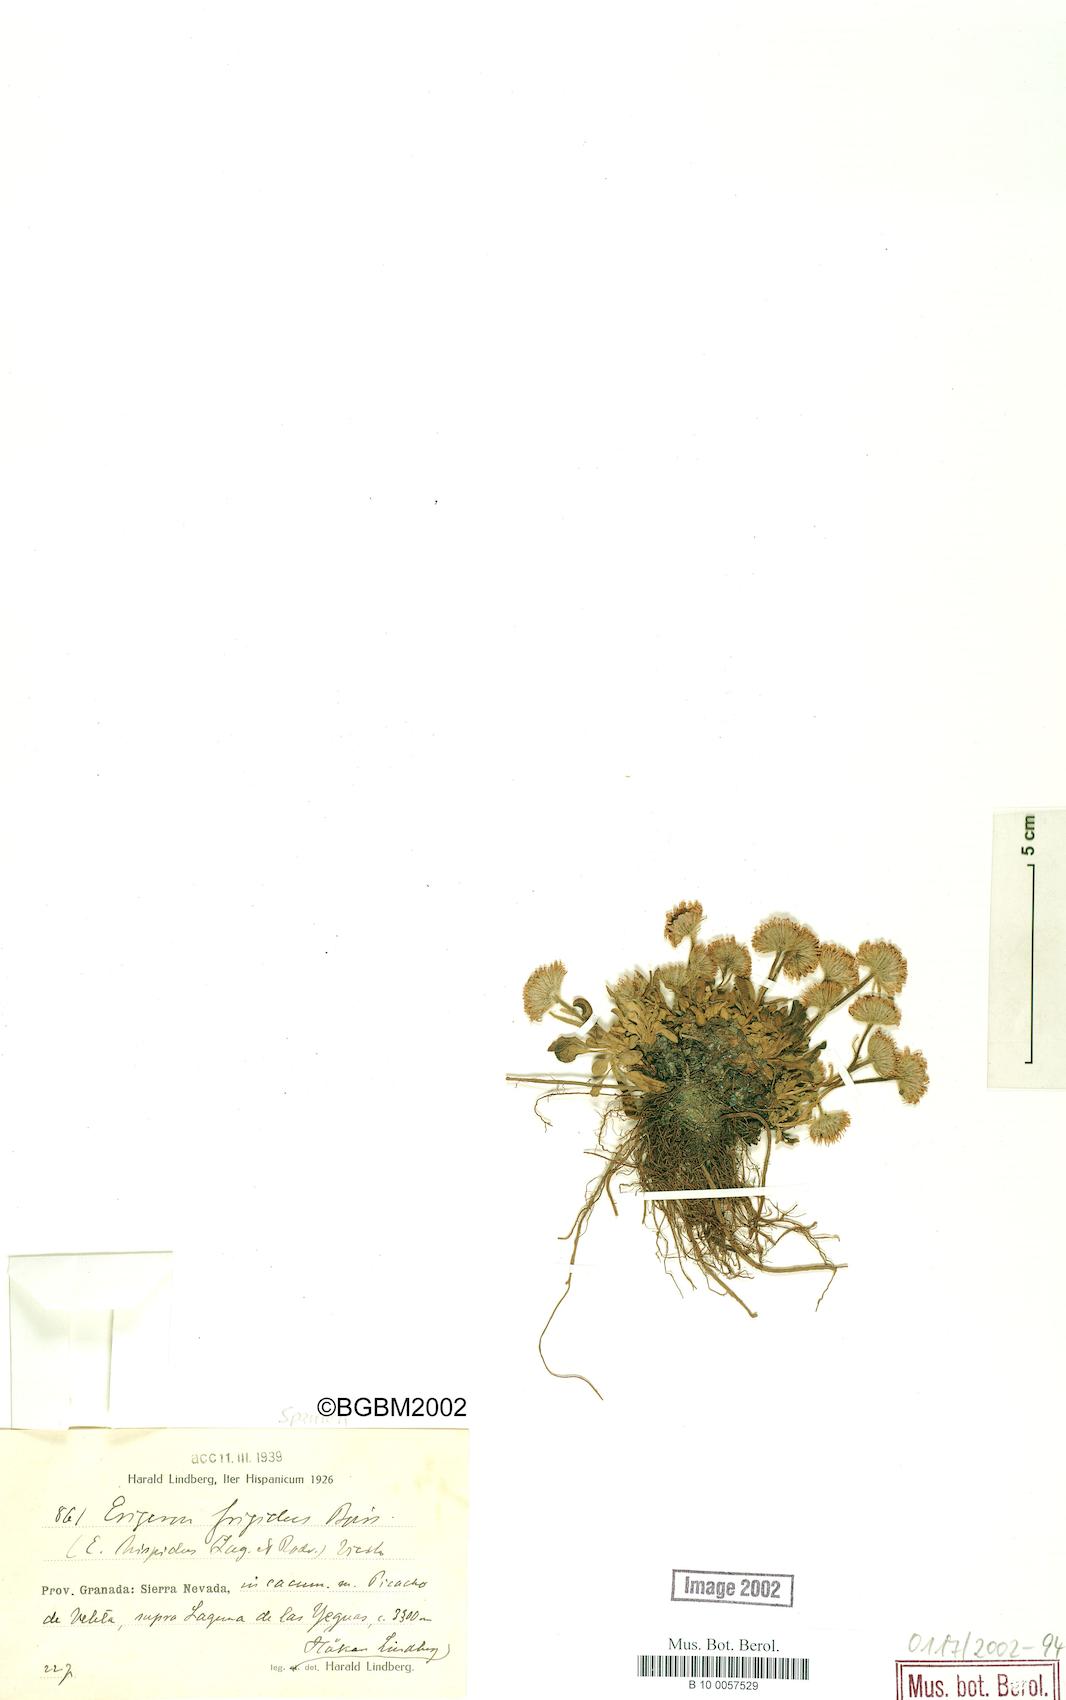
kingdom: Plantae
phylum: Tracheophyta
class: Magnoliopsida
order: Asterales
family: Asteraceae
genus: Erigeron
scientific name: Erigeron aragonensis
